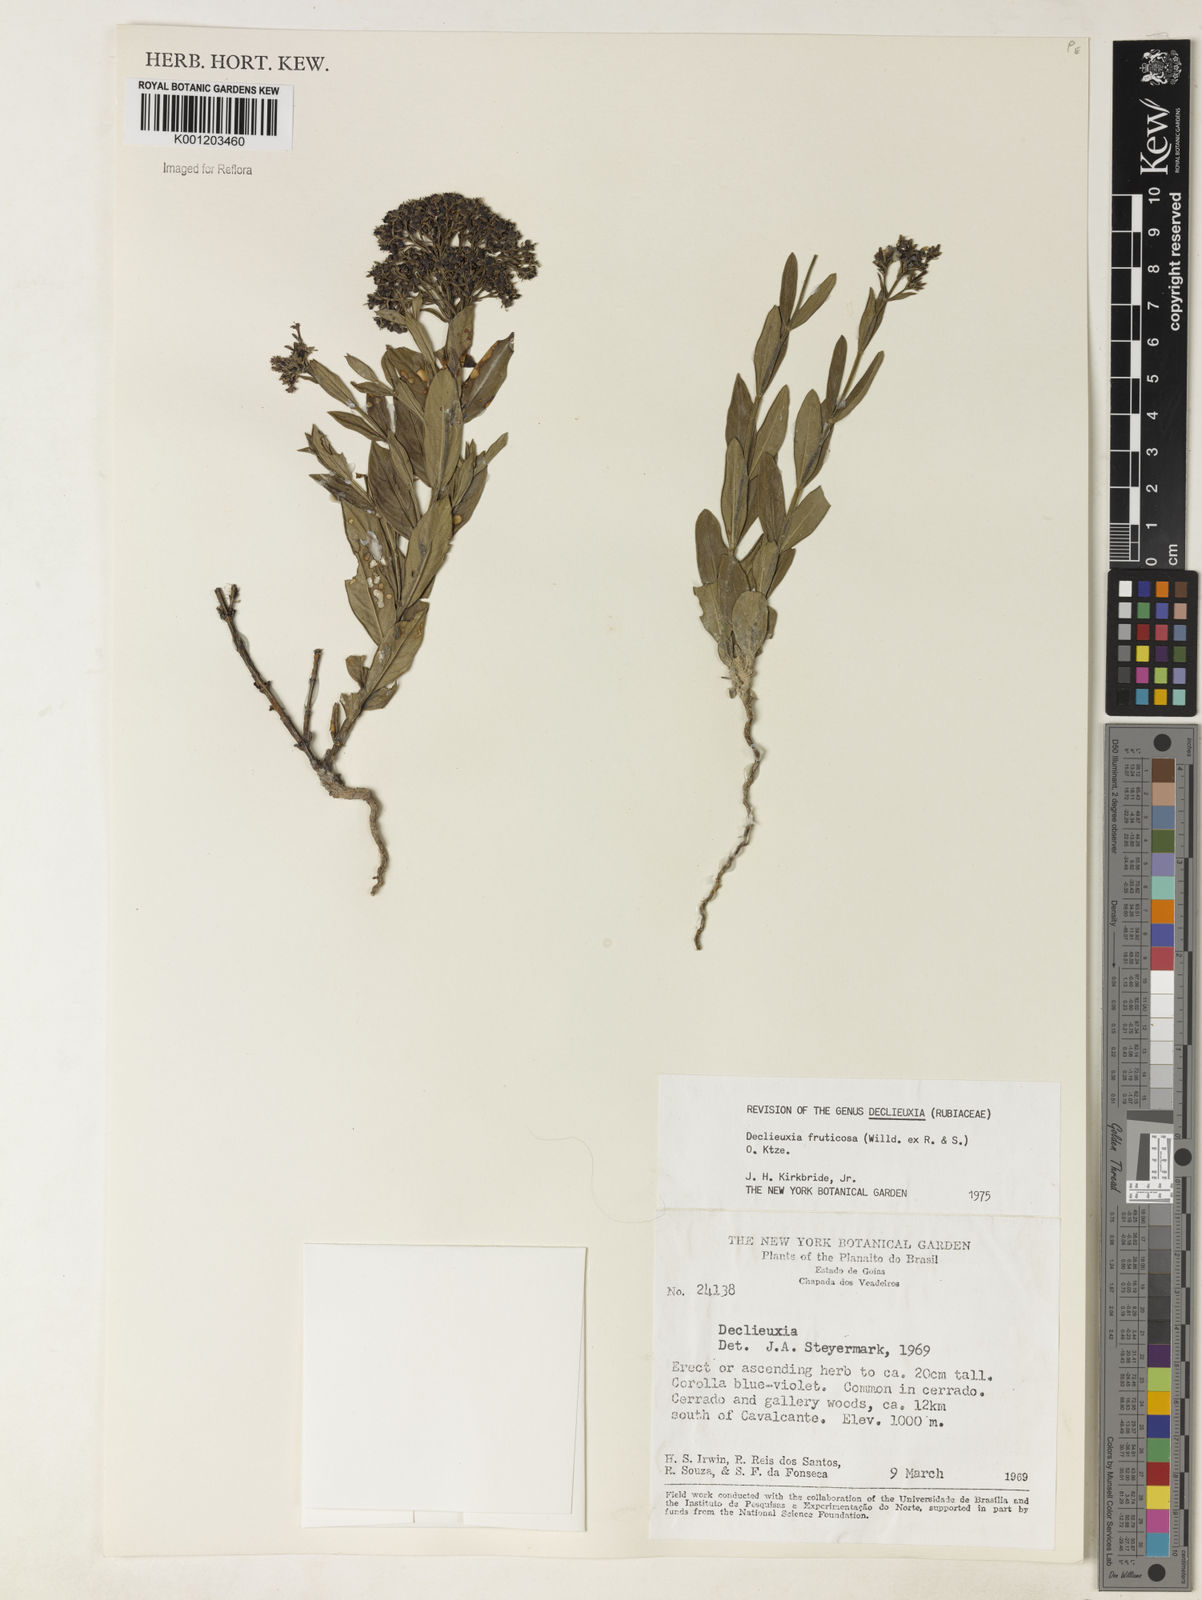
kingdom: Plantae
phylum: Tracheophyta
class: Magnoliopsida
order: Gentianales
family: Rubiaceae
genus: Declieuxia
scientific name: Declieuxia fruticosa
